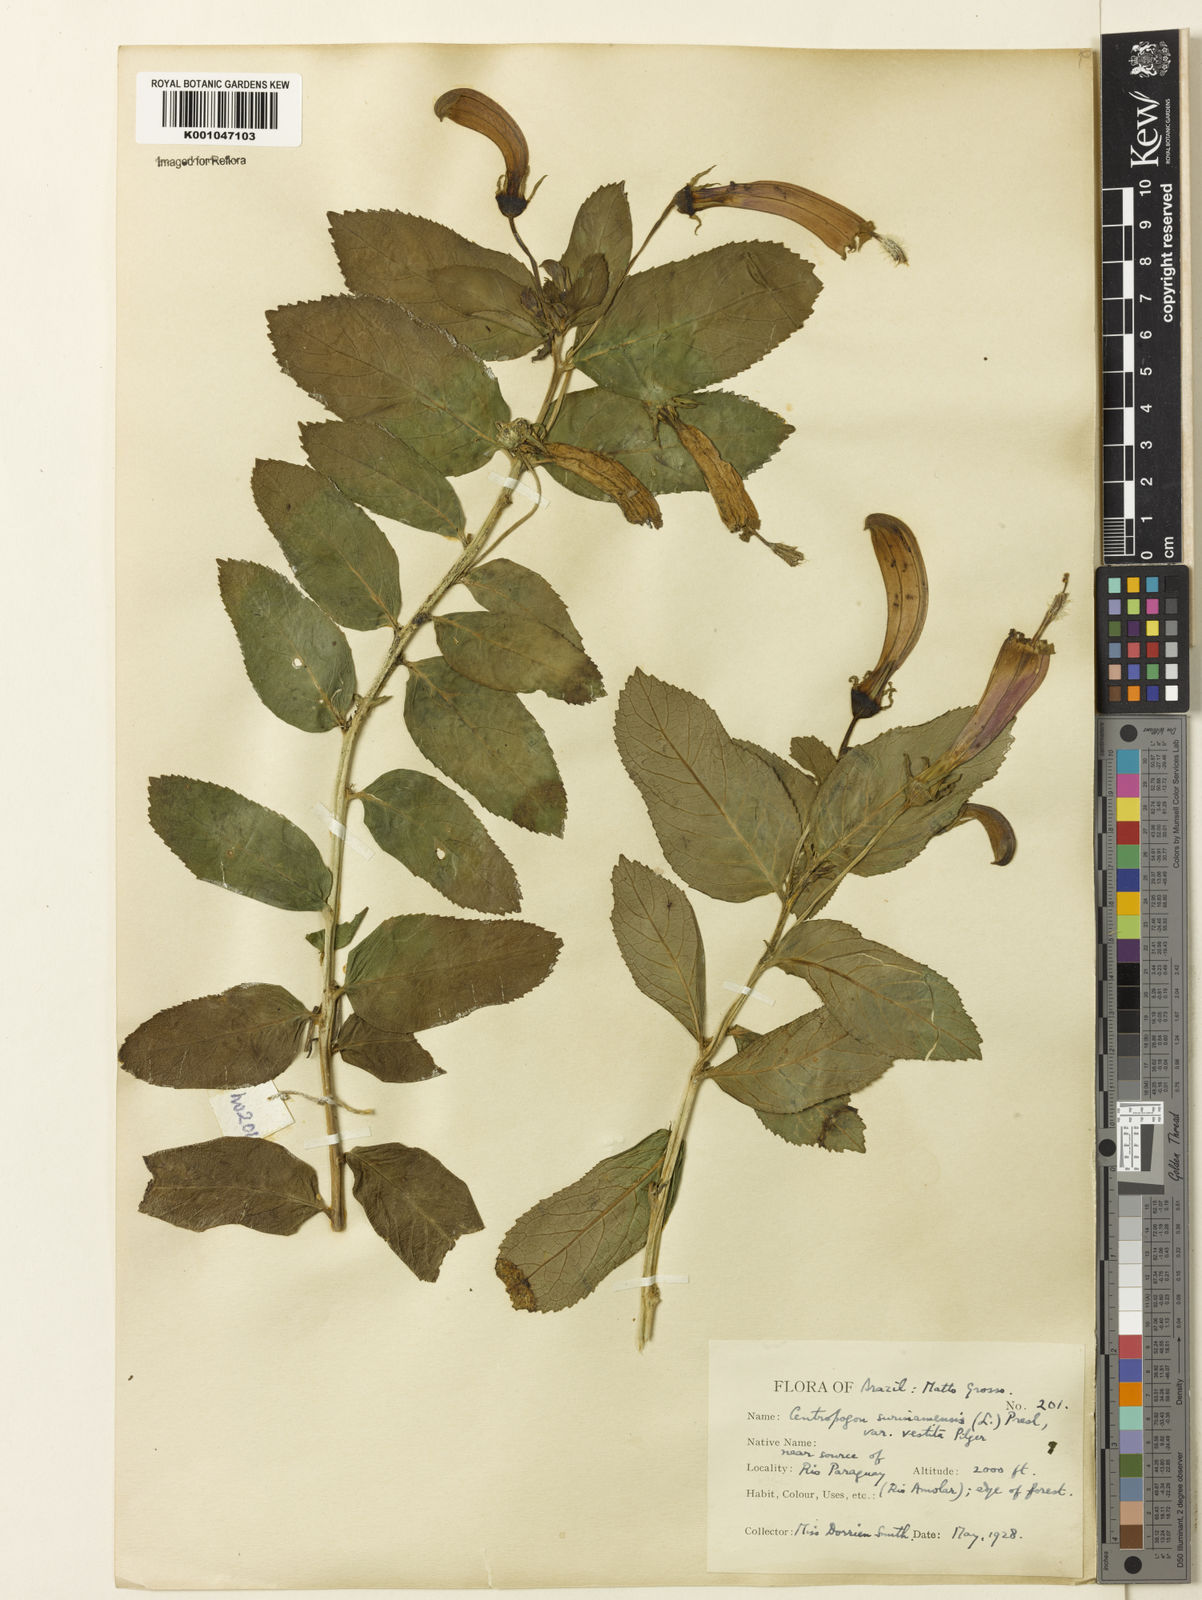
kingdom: Plantae
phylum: Tracheophyta
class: Magnoliopsida
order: Asterales
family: Campanulaceae
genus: Centropogon
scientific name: Centropogon cornutus
